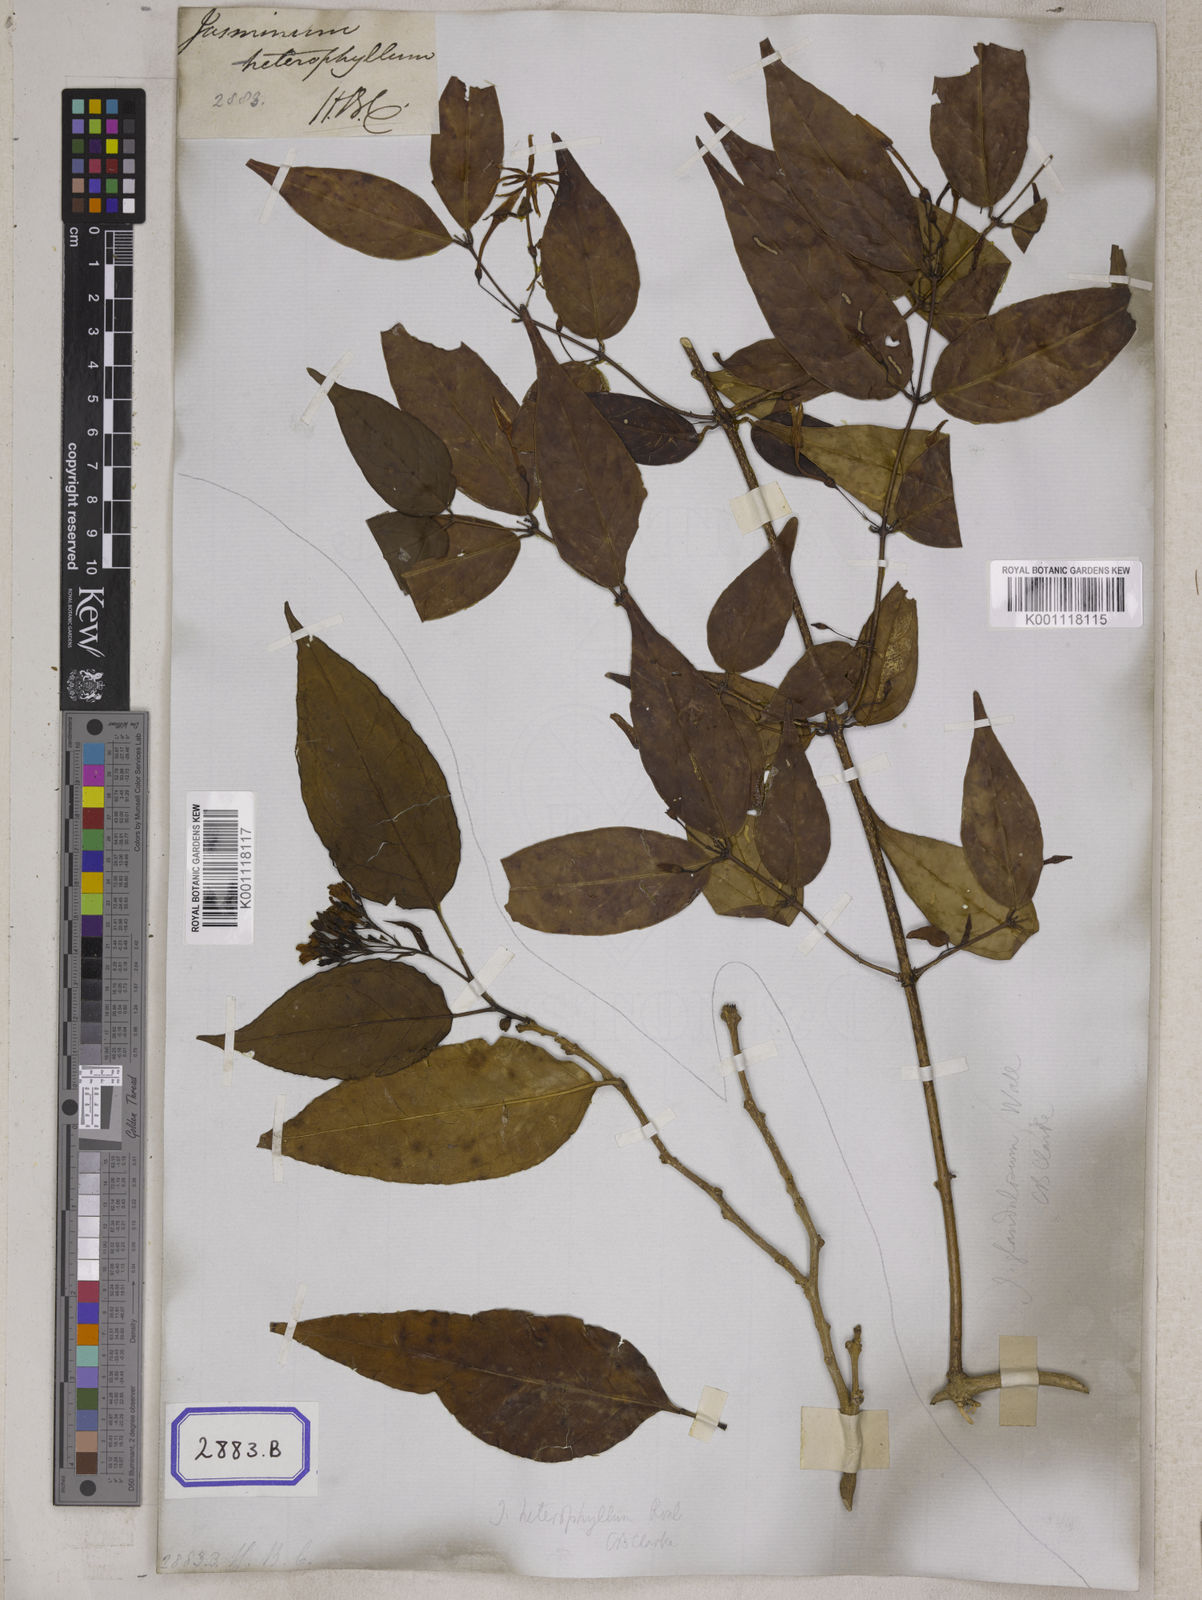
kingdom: Plantae
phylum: Tracheophyta
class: Magnoliopsida
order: Lamiales
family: Oleaceae
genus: Chrysojasminum
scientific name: Chrysojasminum subhumile
